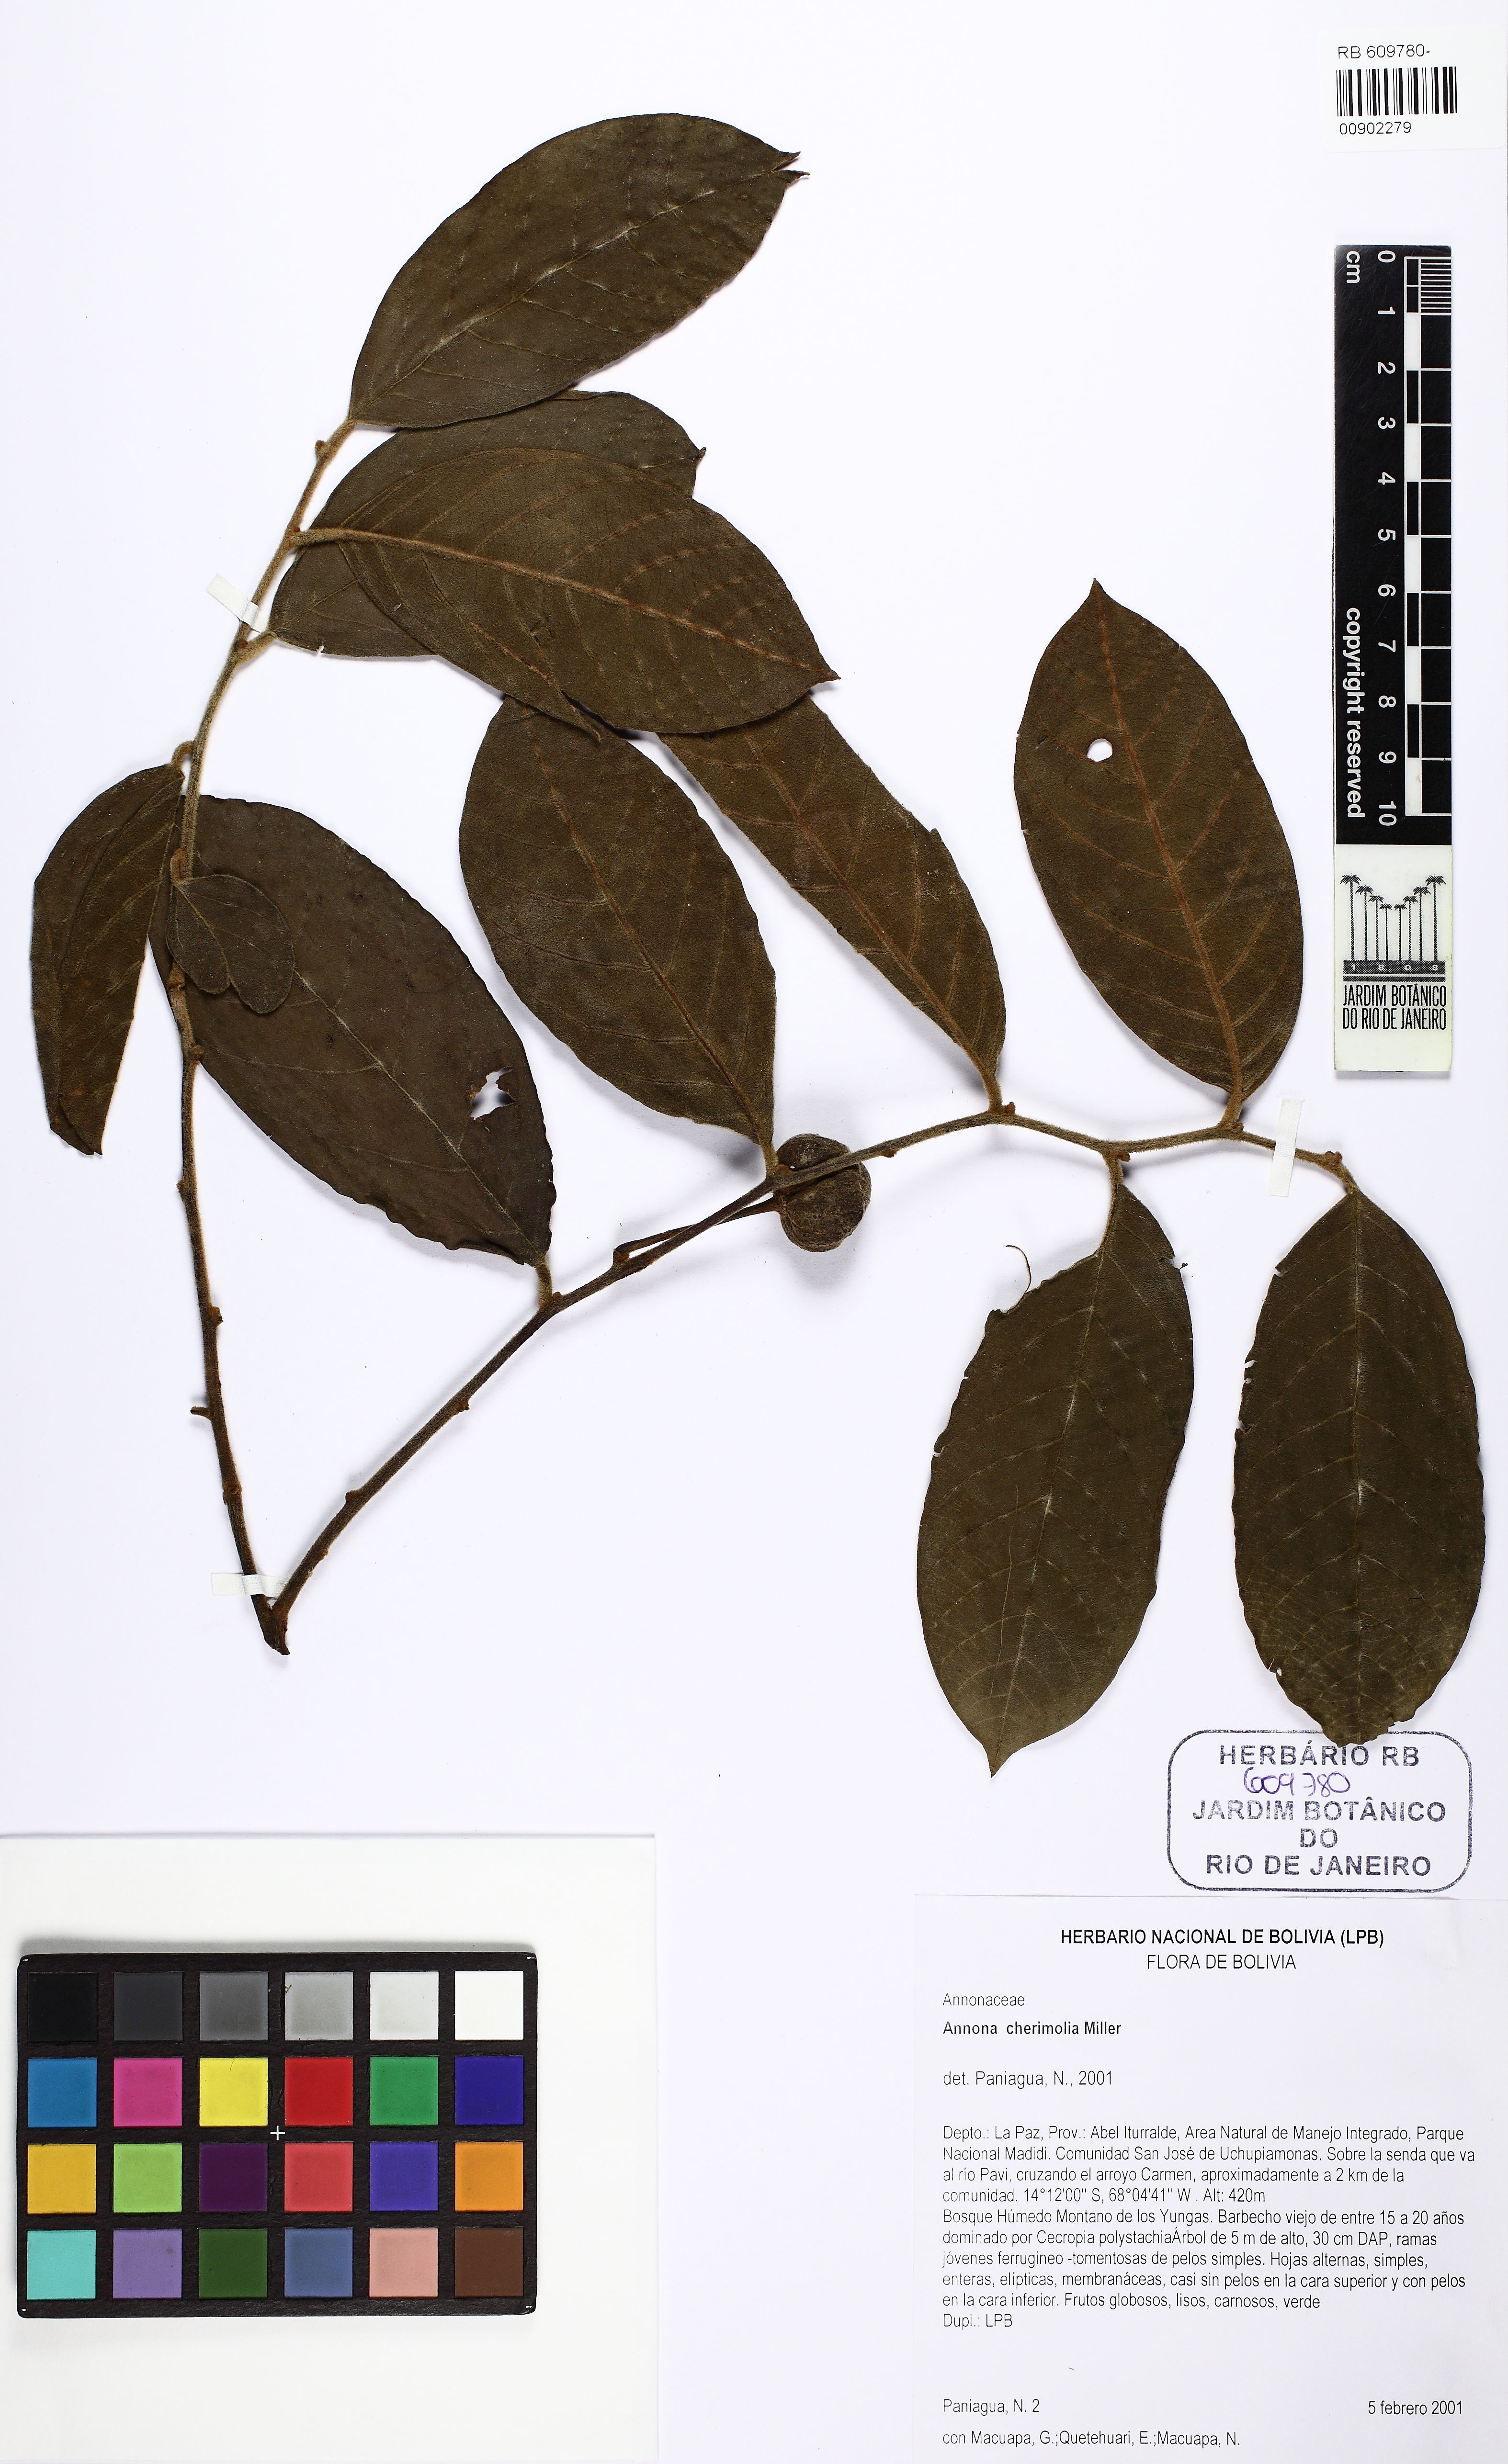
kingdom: Plantae
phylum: Tracheophyta
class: Magnoliopsida
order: Magnoliales
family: Annonaceae
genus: Annona
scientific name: Annona cherimola
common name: Cherimoya
